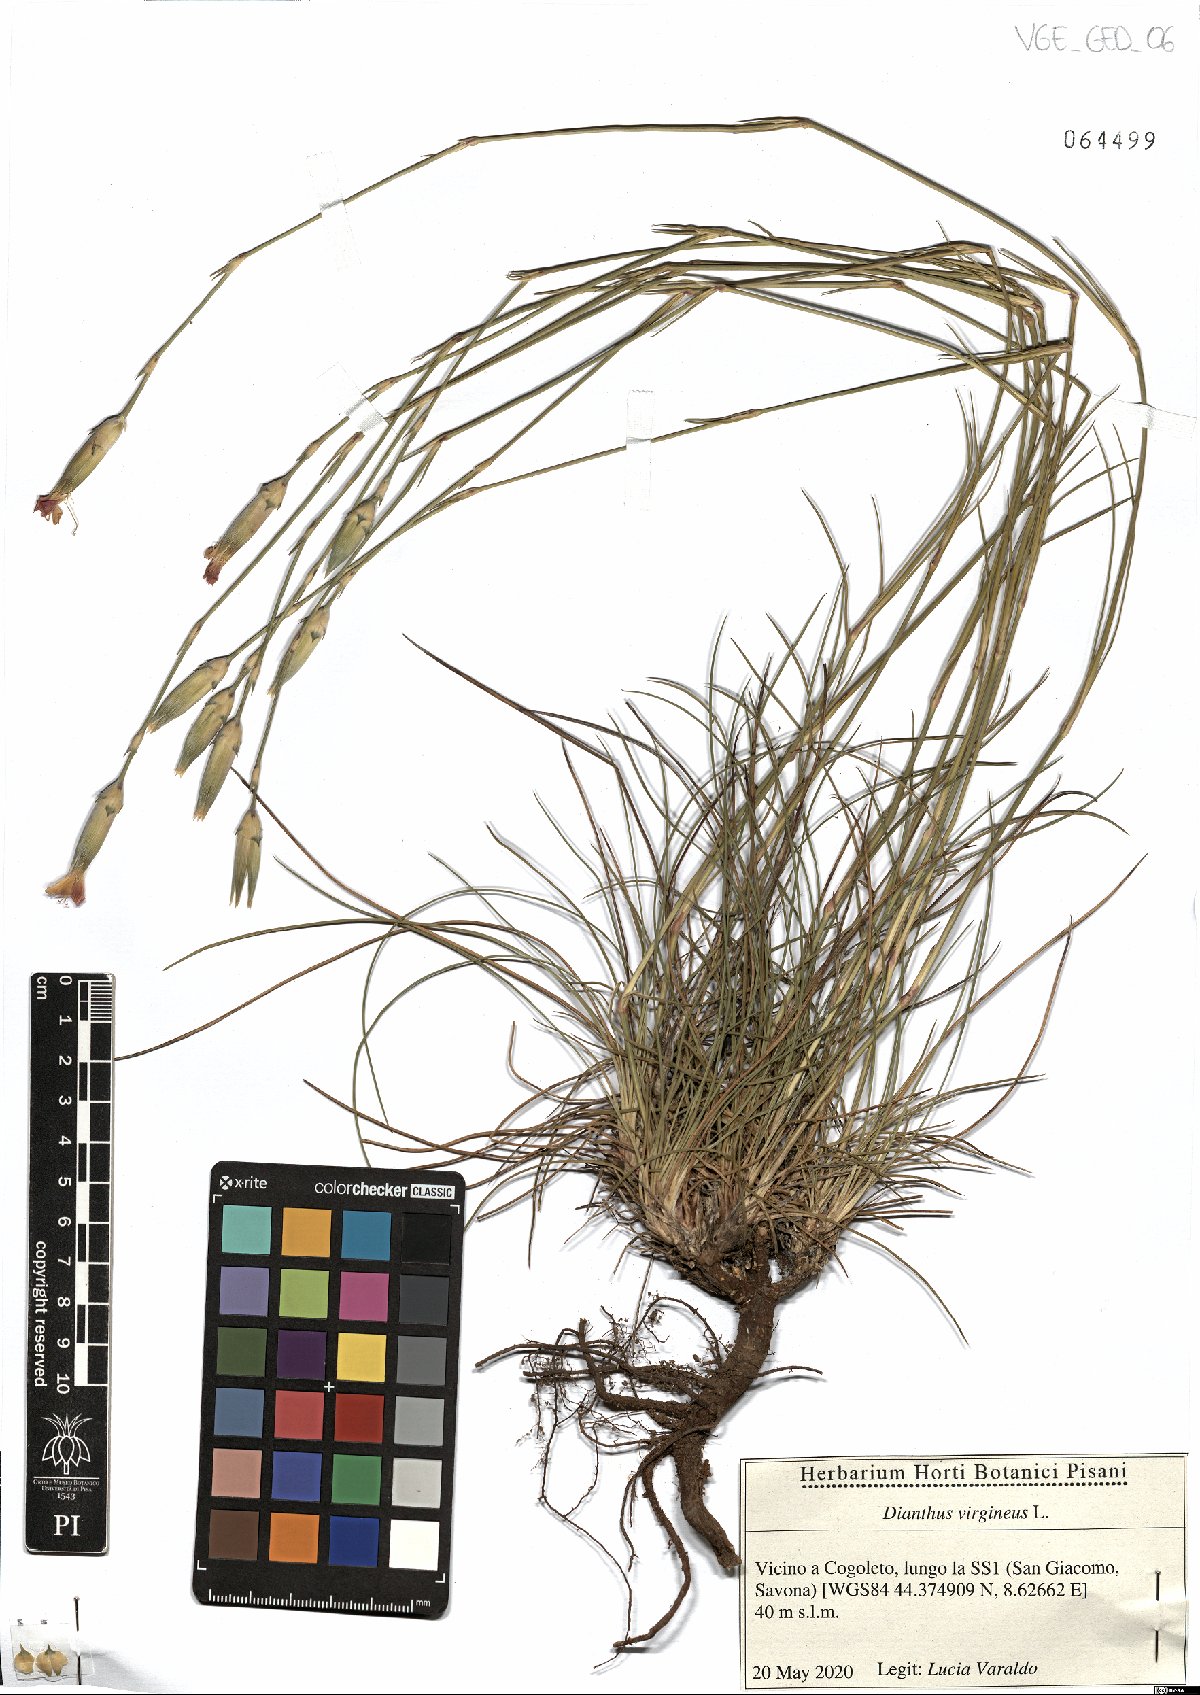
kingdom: Plantae
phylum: Tracheophyta
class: Magnoliopsida
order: Caryophyllales
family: Caryophyllaceae
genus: Dianthus
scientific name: Dianthus virgineus
